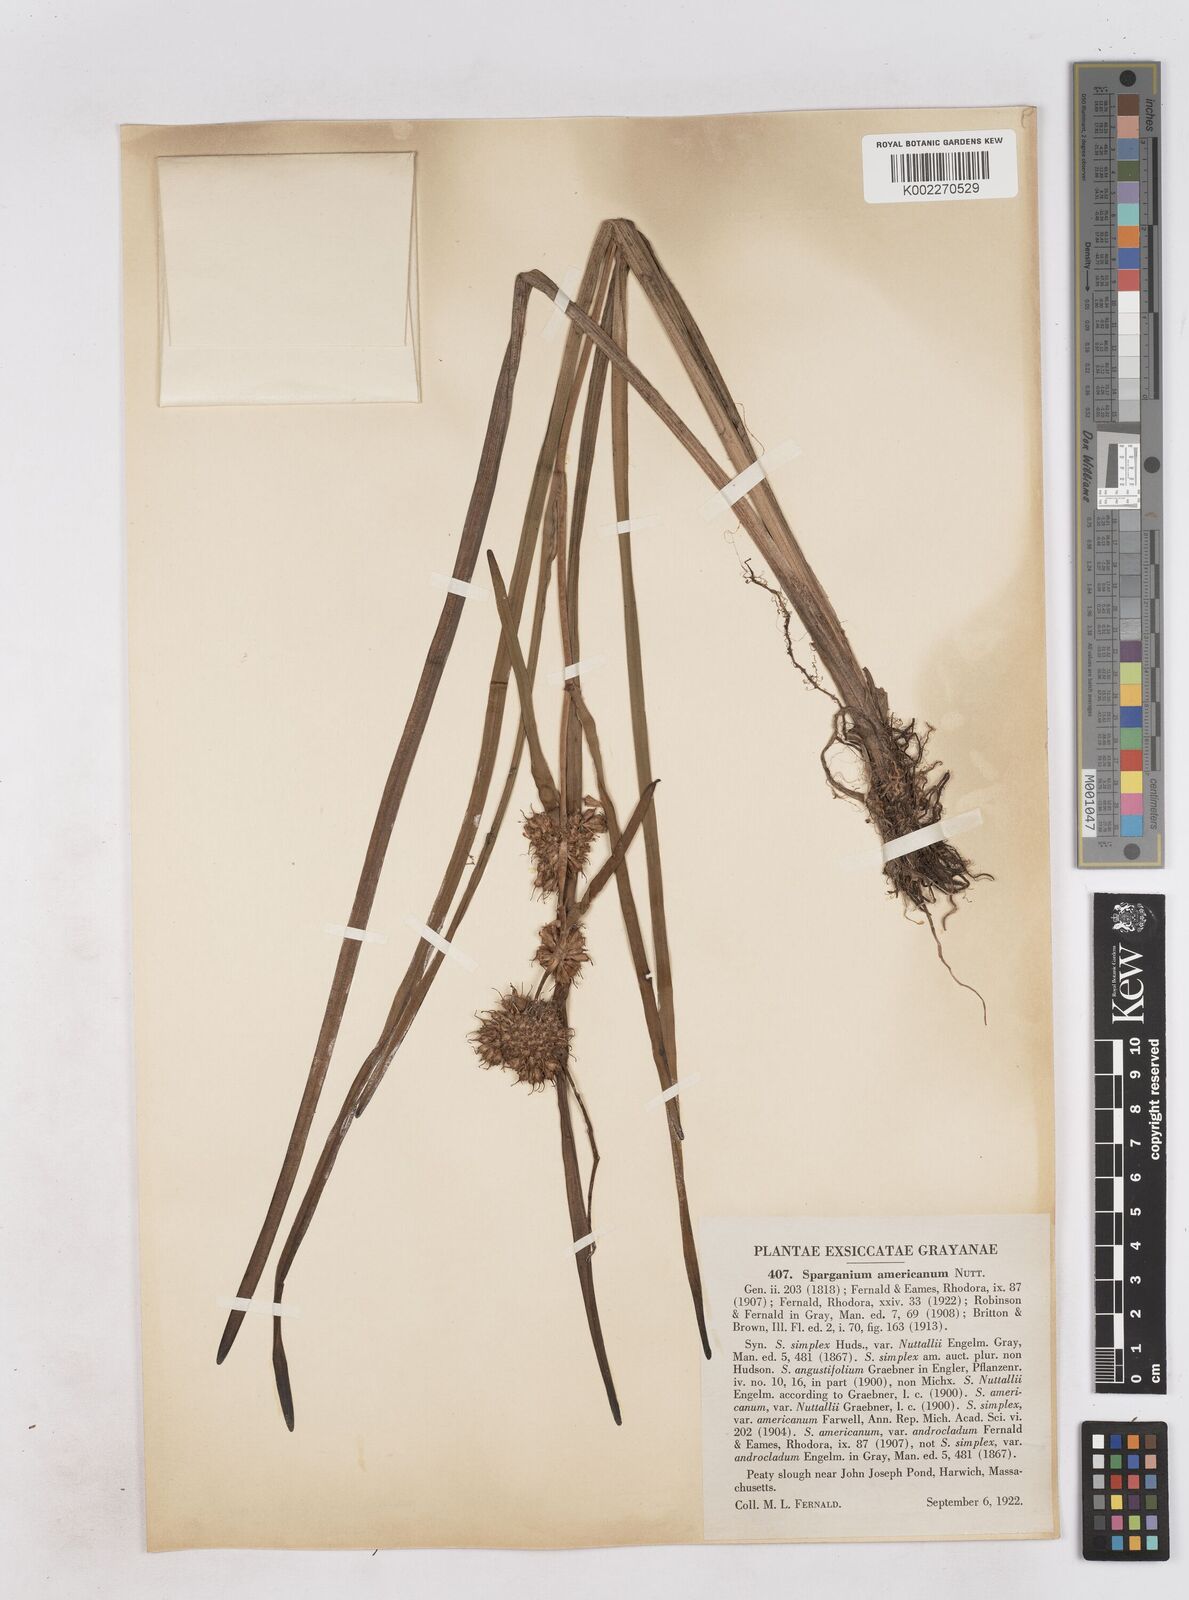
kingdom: Plantae
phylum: Tracheophyta
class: Liliopsida
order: Poales
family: Typhaceae
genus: Sparganium
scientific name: Sparganium americanum
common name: American burreed
